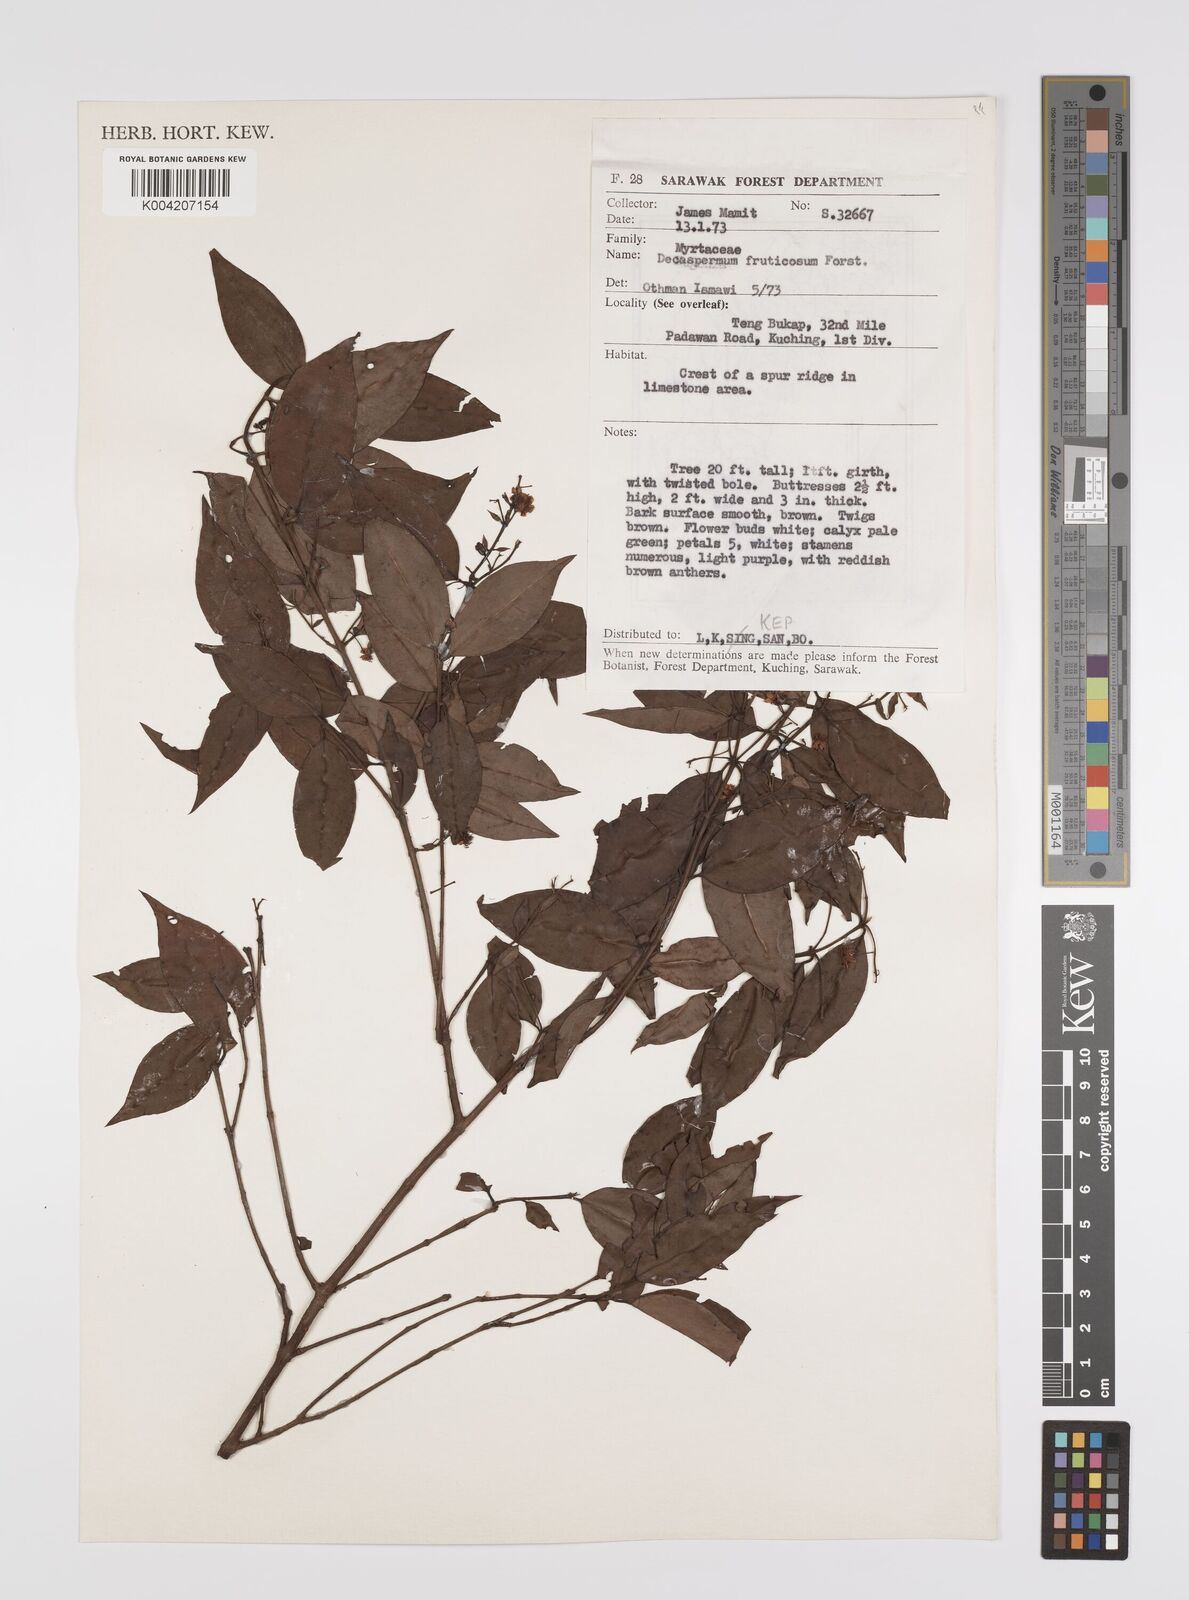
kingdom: Plantae
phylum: Tracheophyta
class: Magnoliopsida
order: Myrtales
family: Myrtaceae
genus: Decaspermum
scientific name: Decaspermum fruticosum
